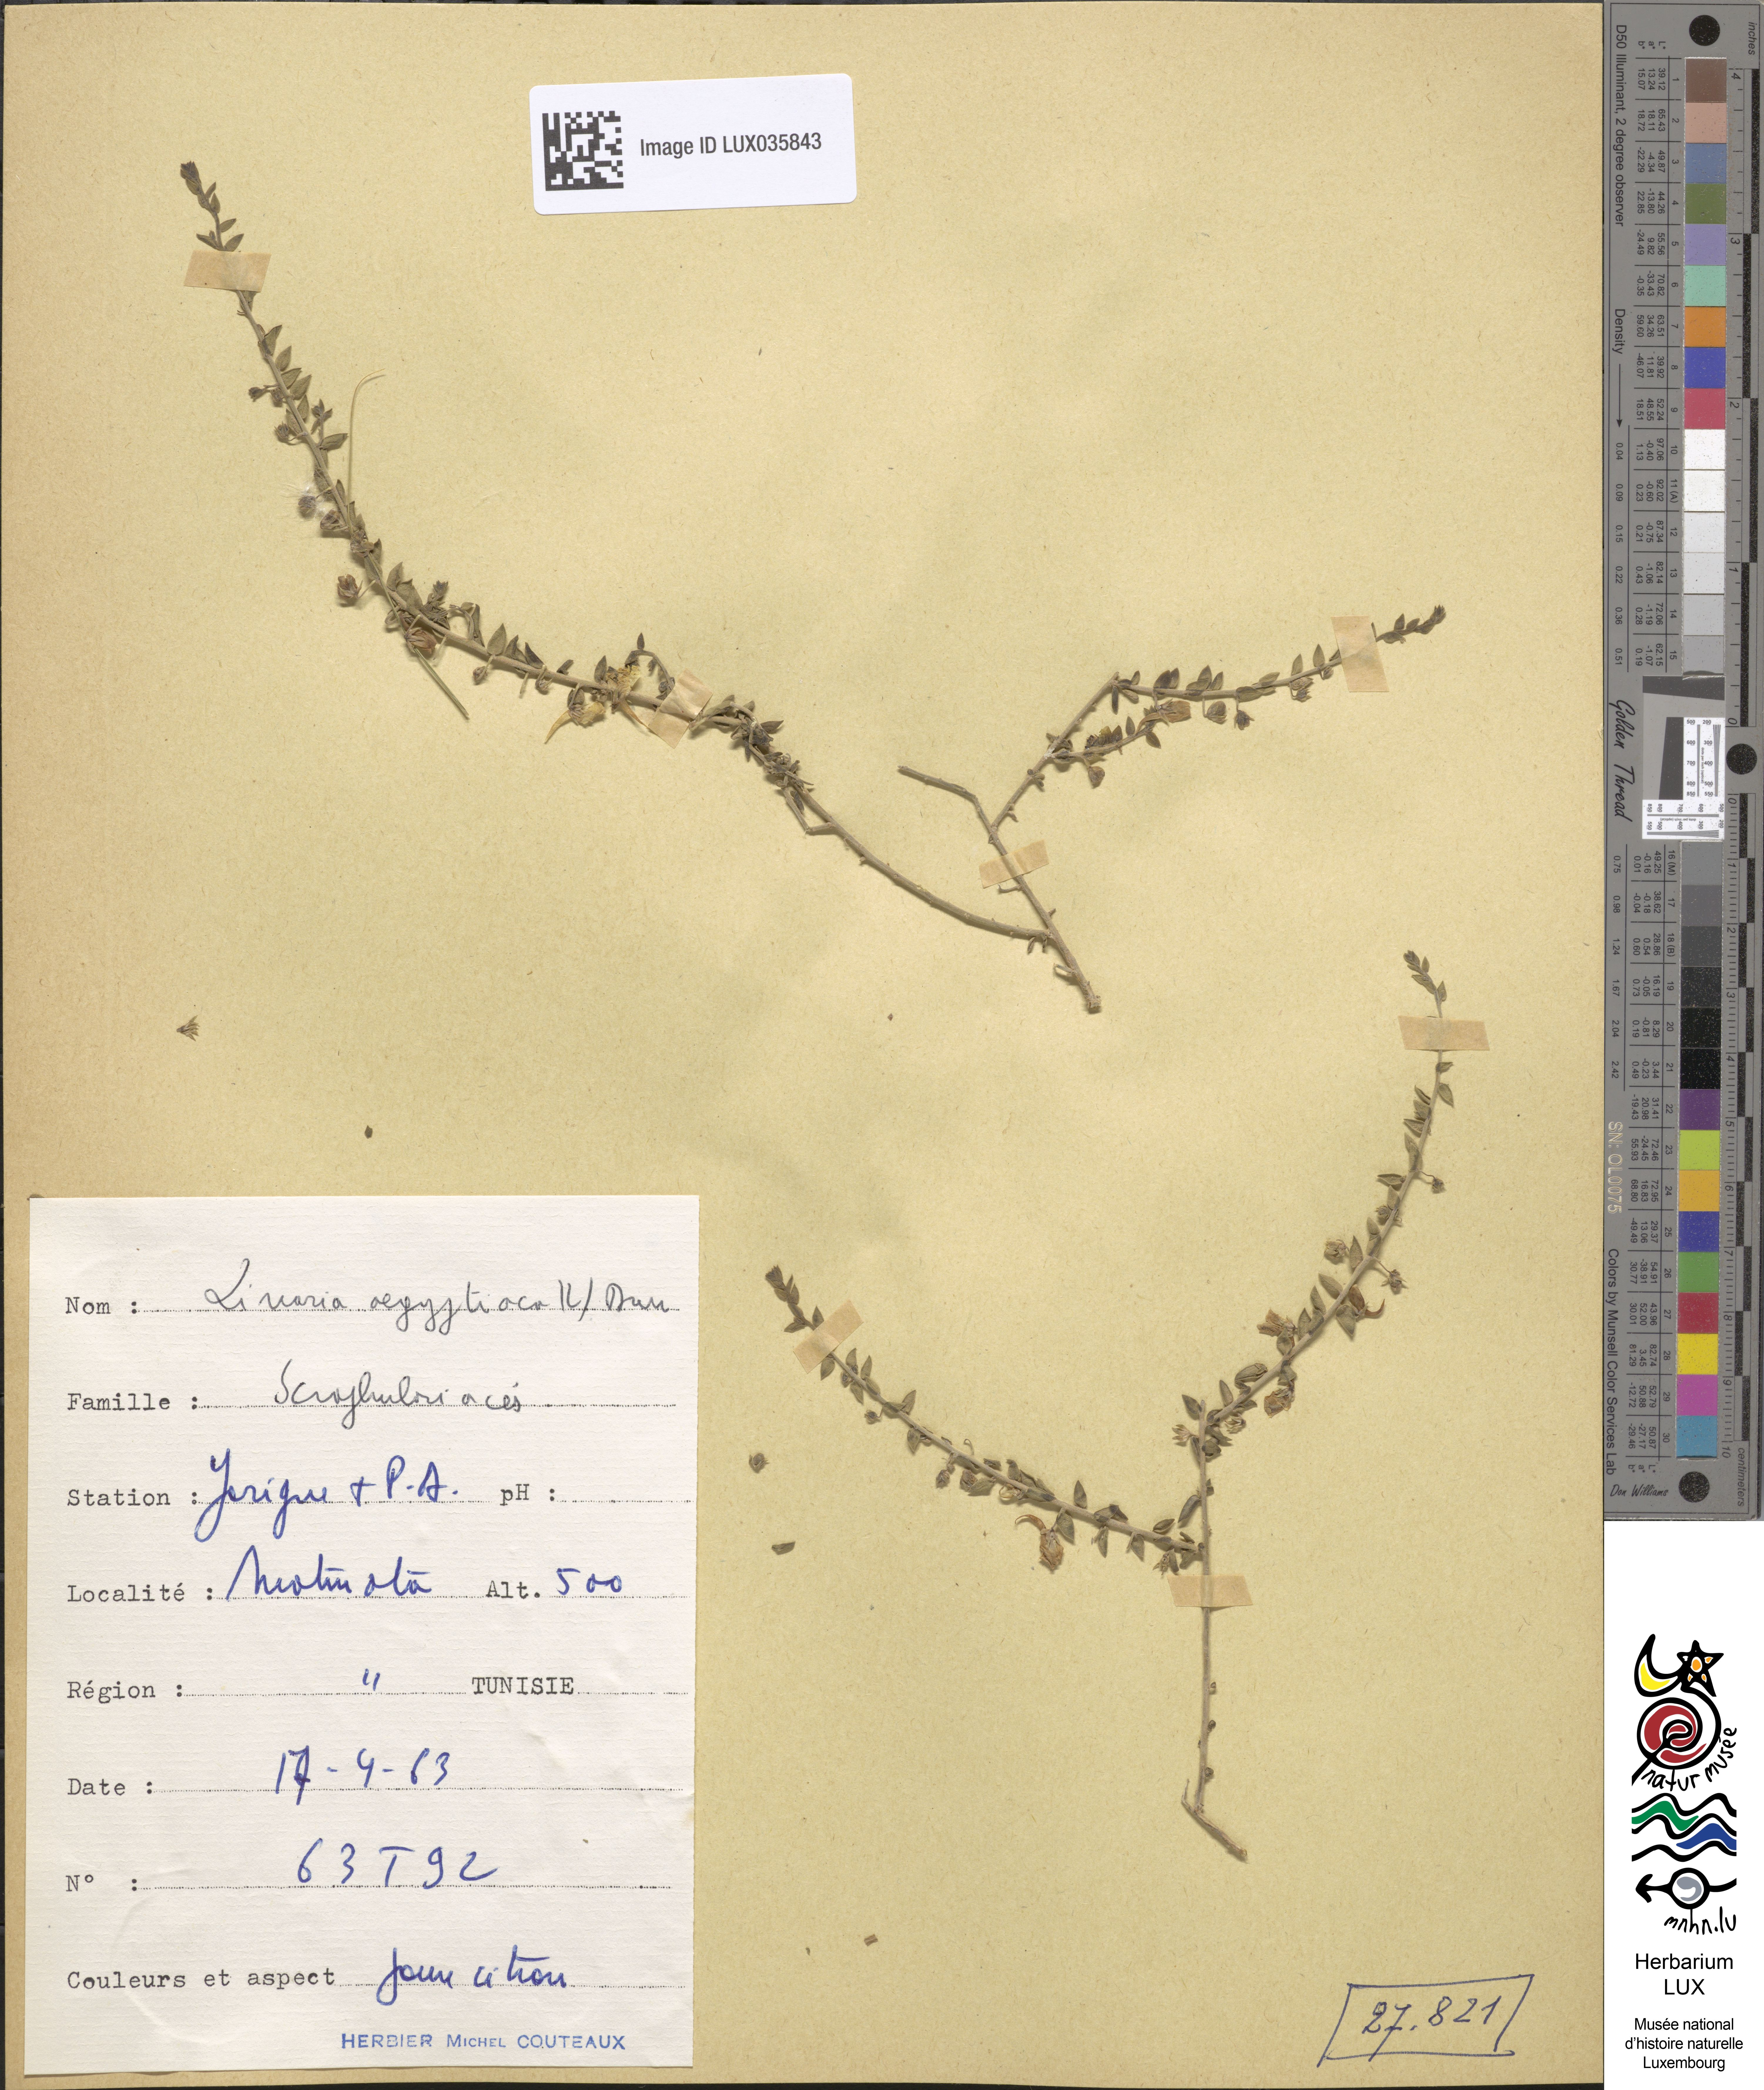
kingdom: Plantae
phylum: Tracheophyta
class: Magnoliopsida
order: Lamiales
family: Plantaginaceae
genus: Kickxia
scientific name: Kickxia aegyptiaca
